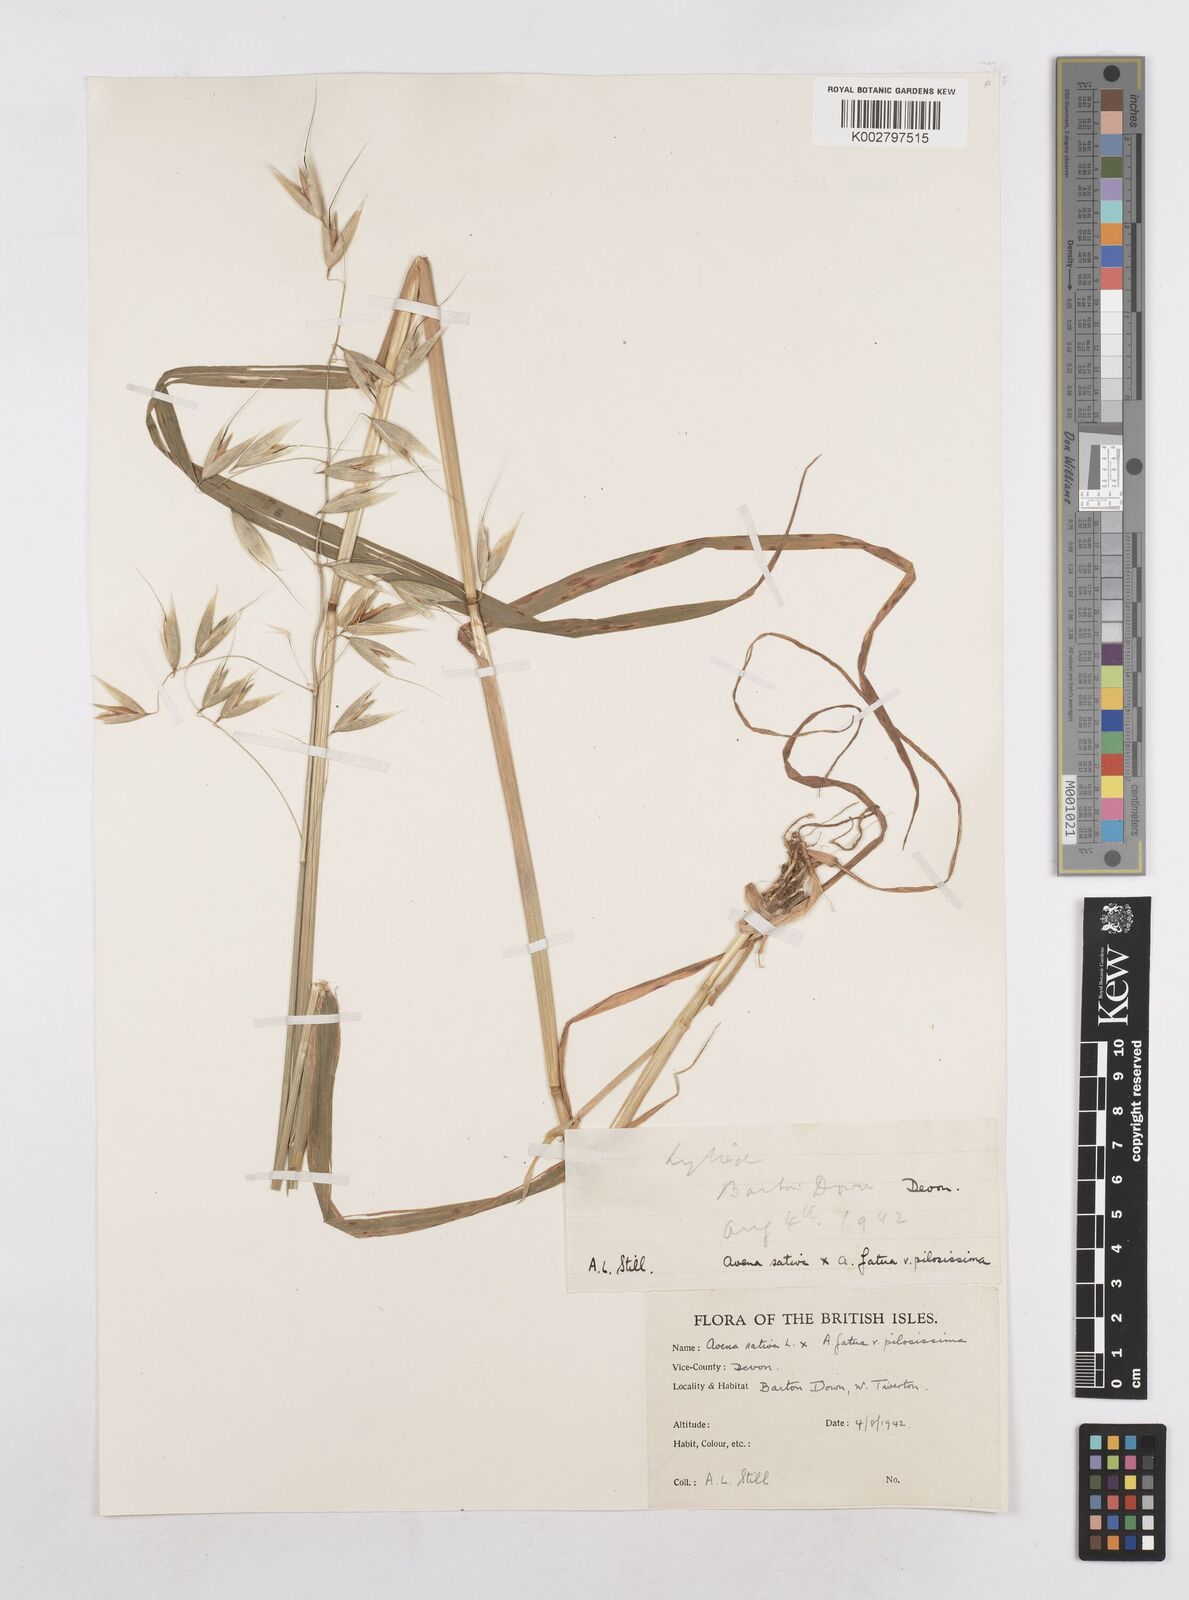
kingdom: Plantae
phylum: Tracheophyta
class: Liliopsida
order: Poales
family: Poaceae
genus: Avena
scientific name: Avena fatua
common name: Wild oat
